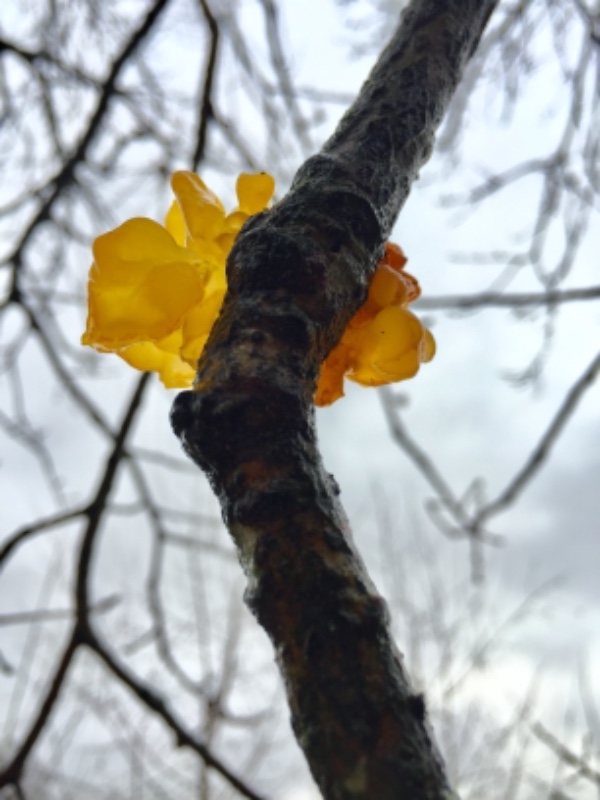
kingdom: Fungi
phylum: Basidiomycota
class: Tremellomycetes
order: Tremellales
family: Tremellaceae
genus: Tremella
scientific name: Tremella mesenterica
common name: gul bævresvamp
